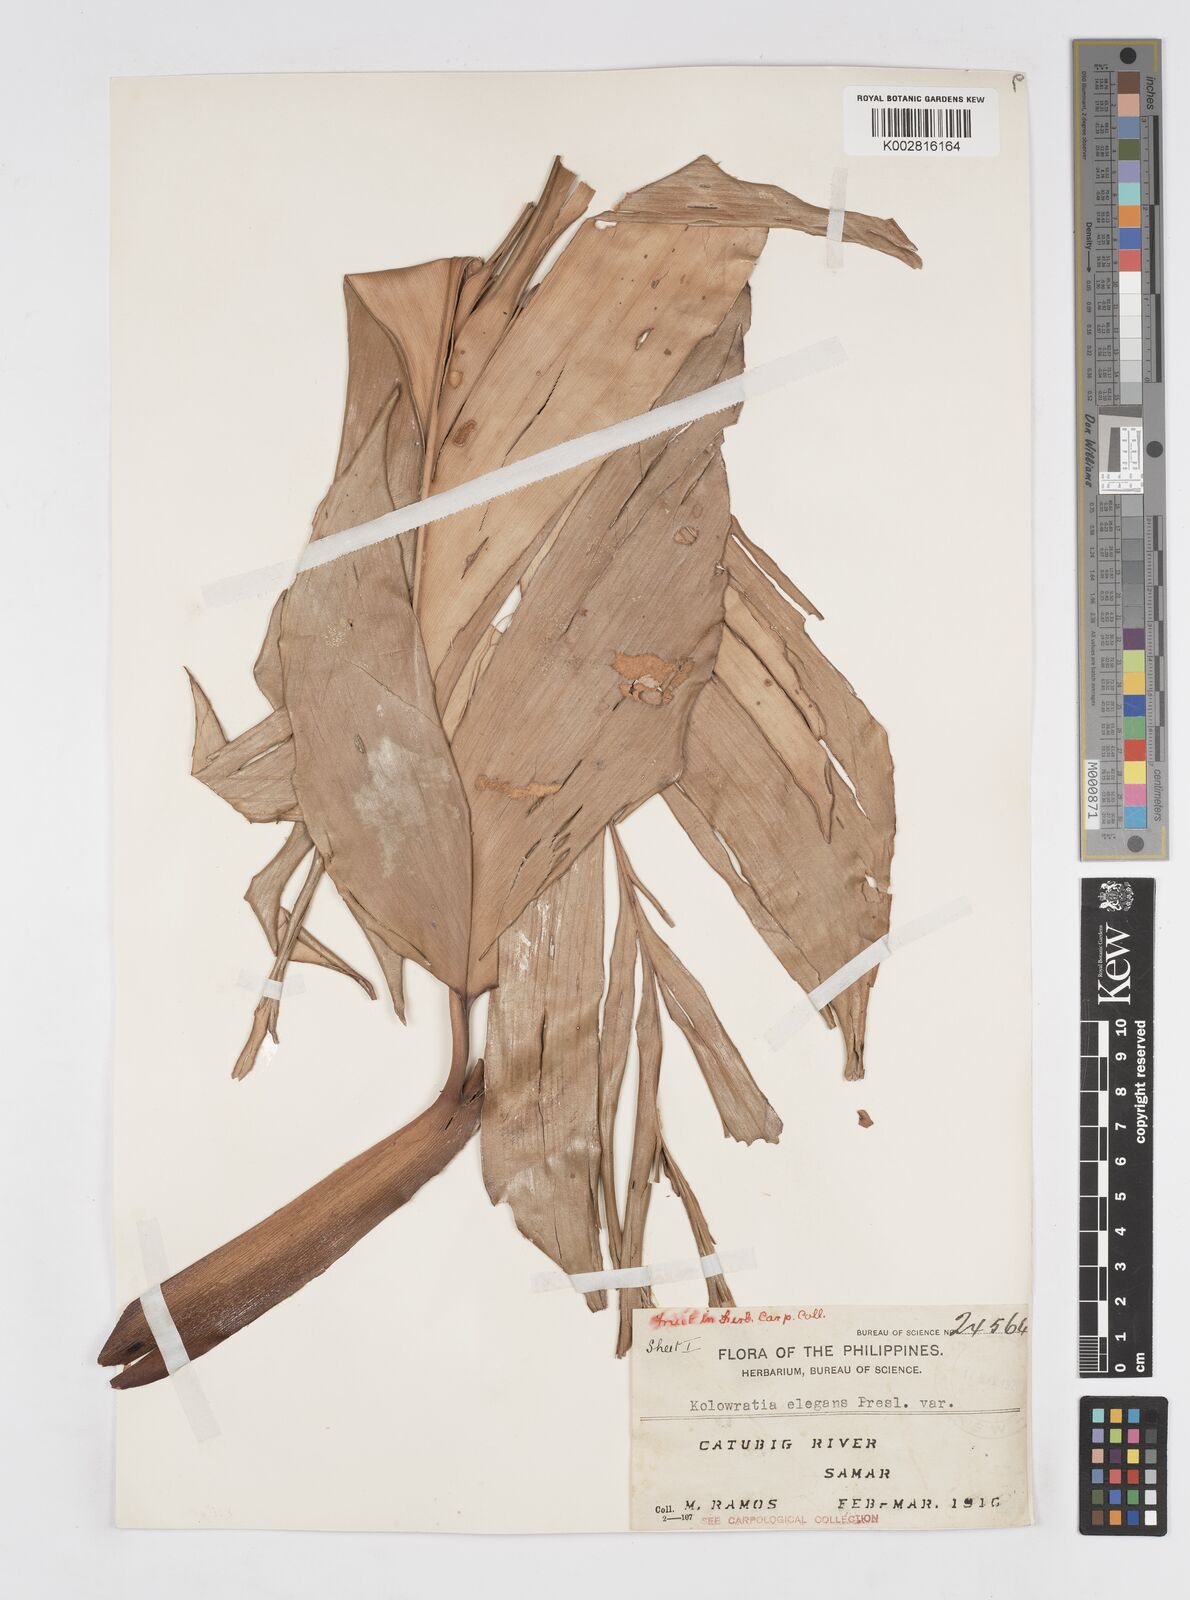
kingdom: Plantae
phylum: Tracheophyta
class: Liliopsida
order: Zingiberales
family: Zingiberaceae
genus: Alpinia
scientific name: Alpinia elegans
